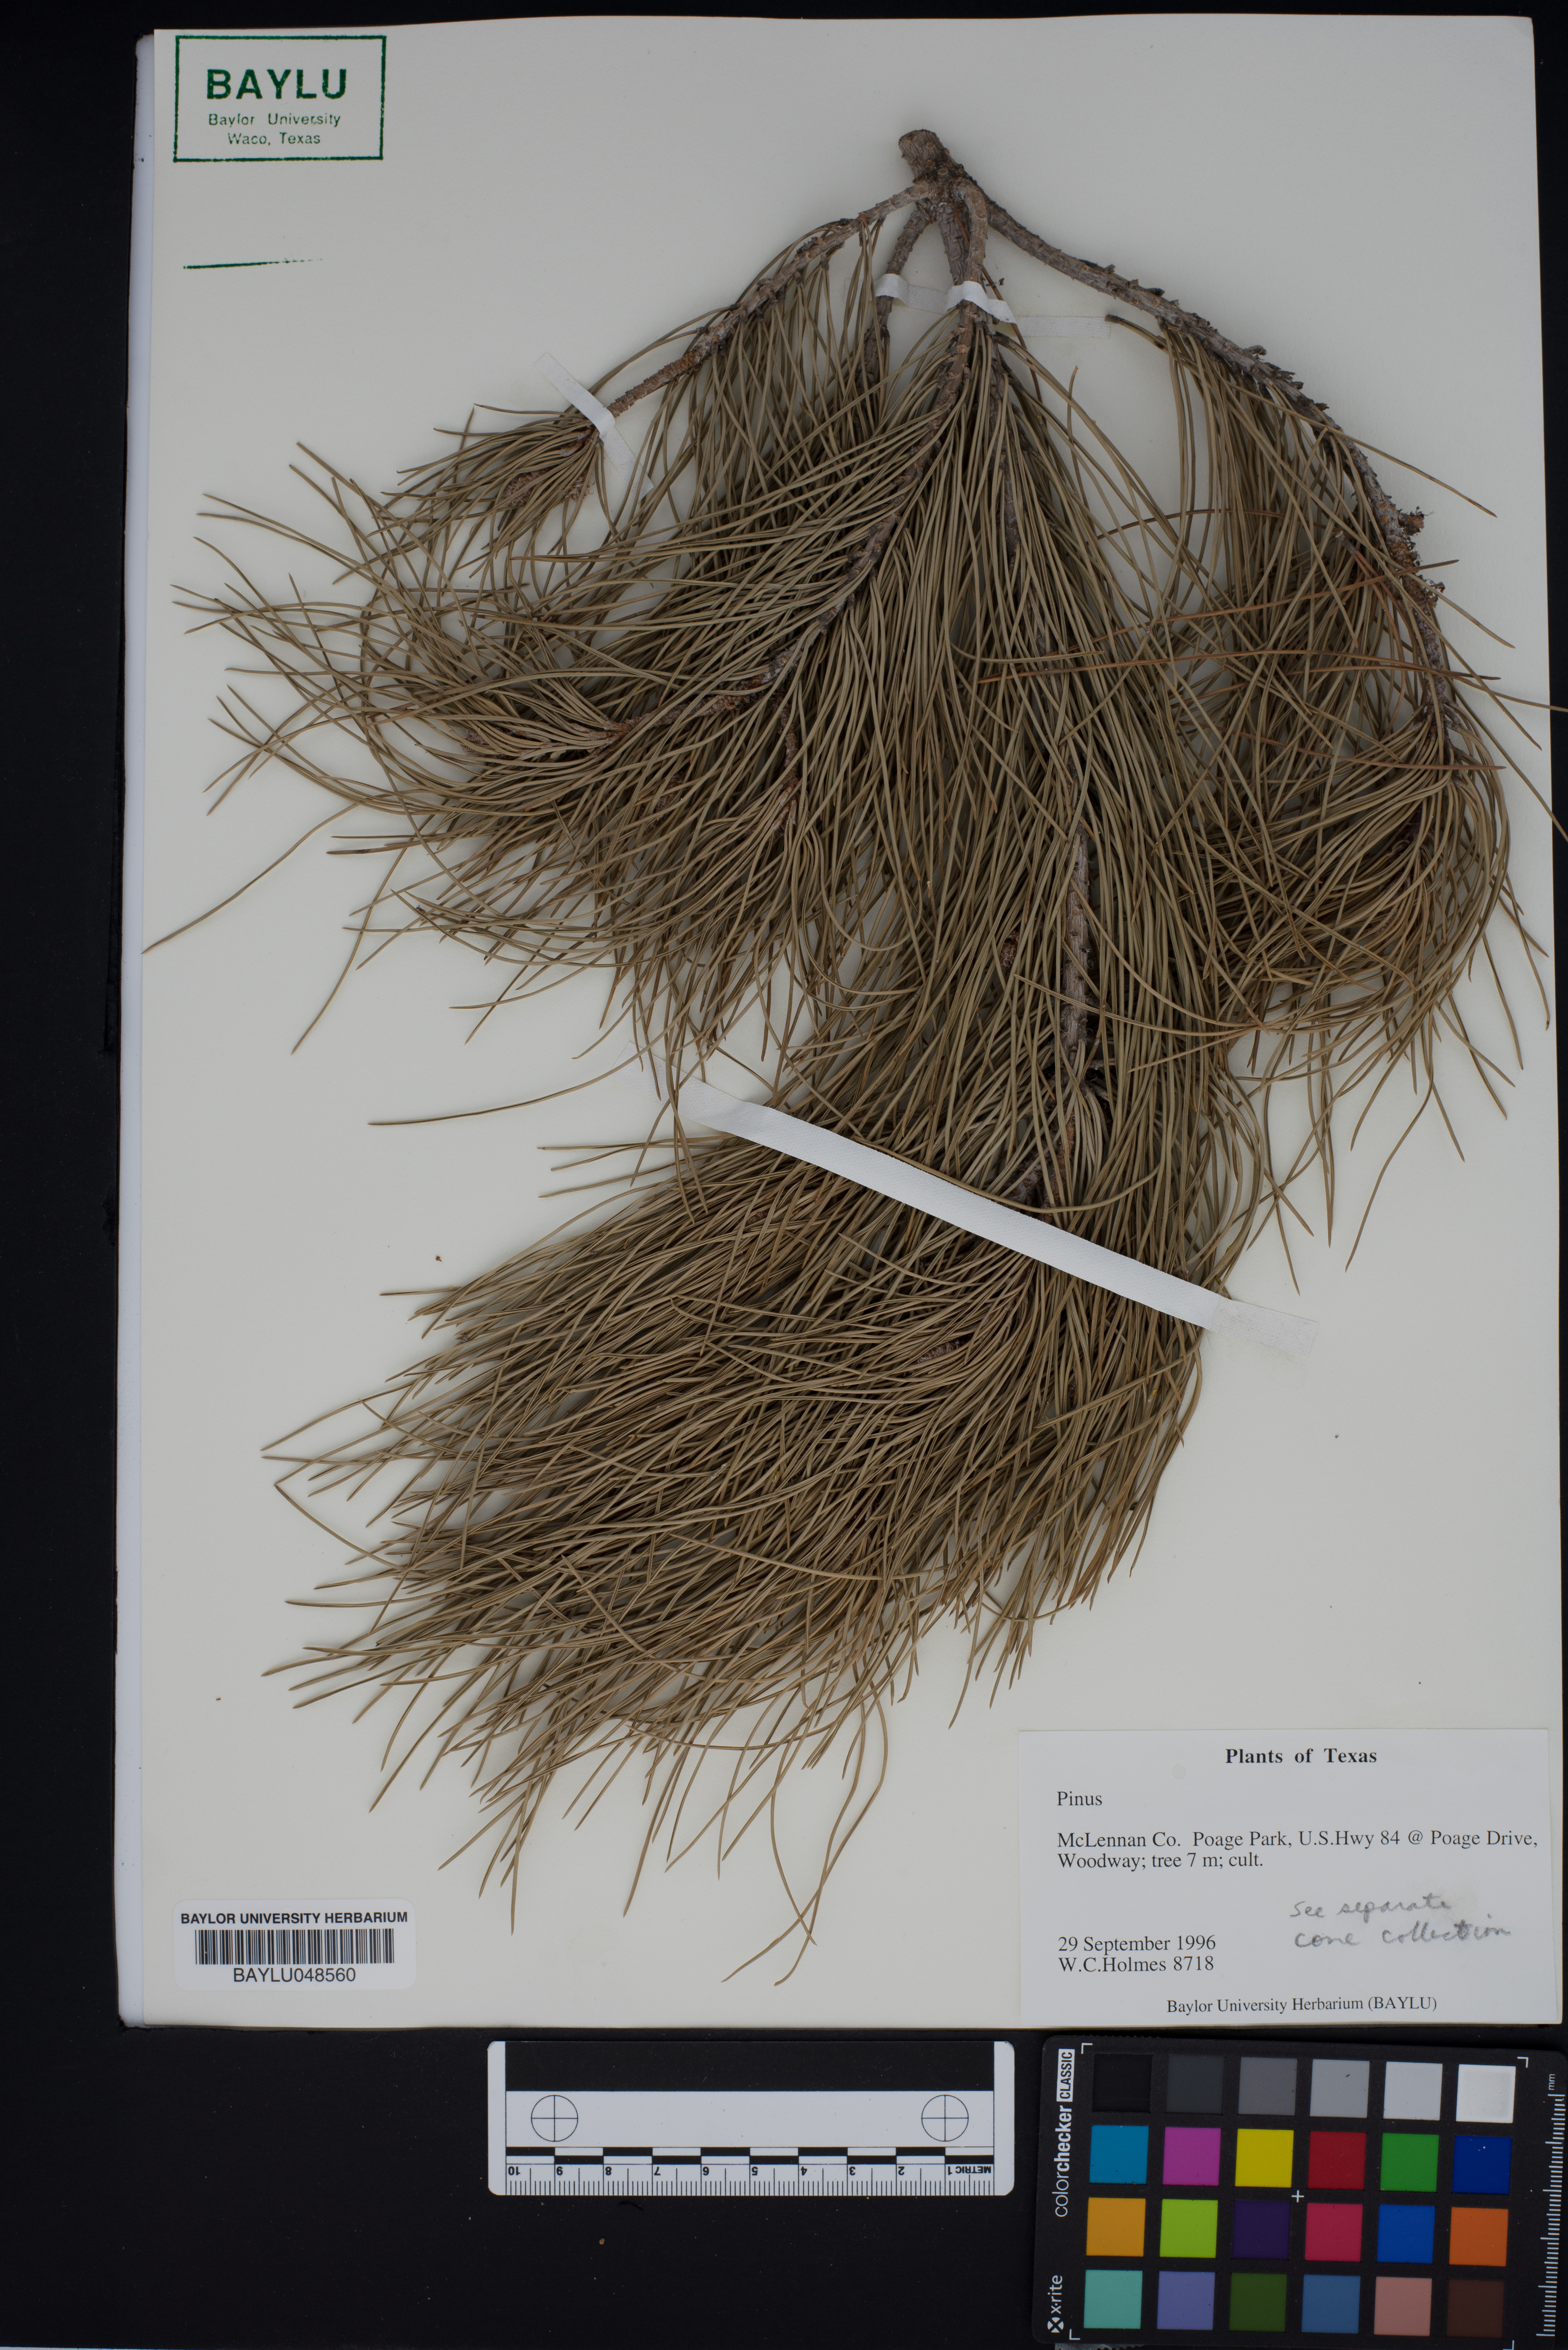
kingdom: Plantae
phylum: Tracheophyta
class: Pinopsida
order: Pinales
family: Pinaceae
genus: Pinus
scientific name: Pinus
